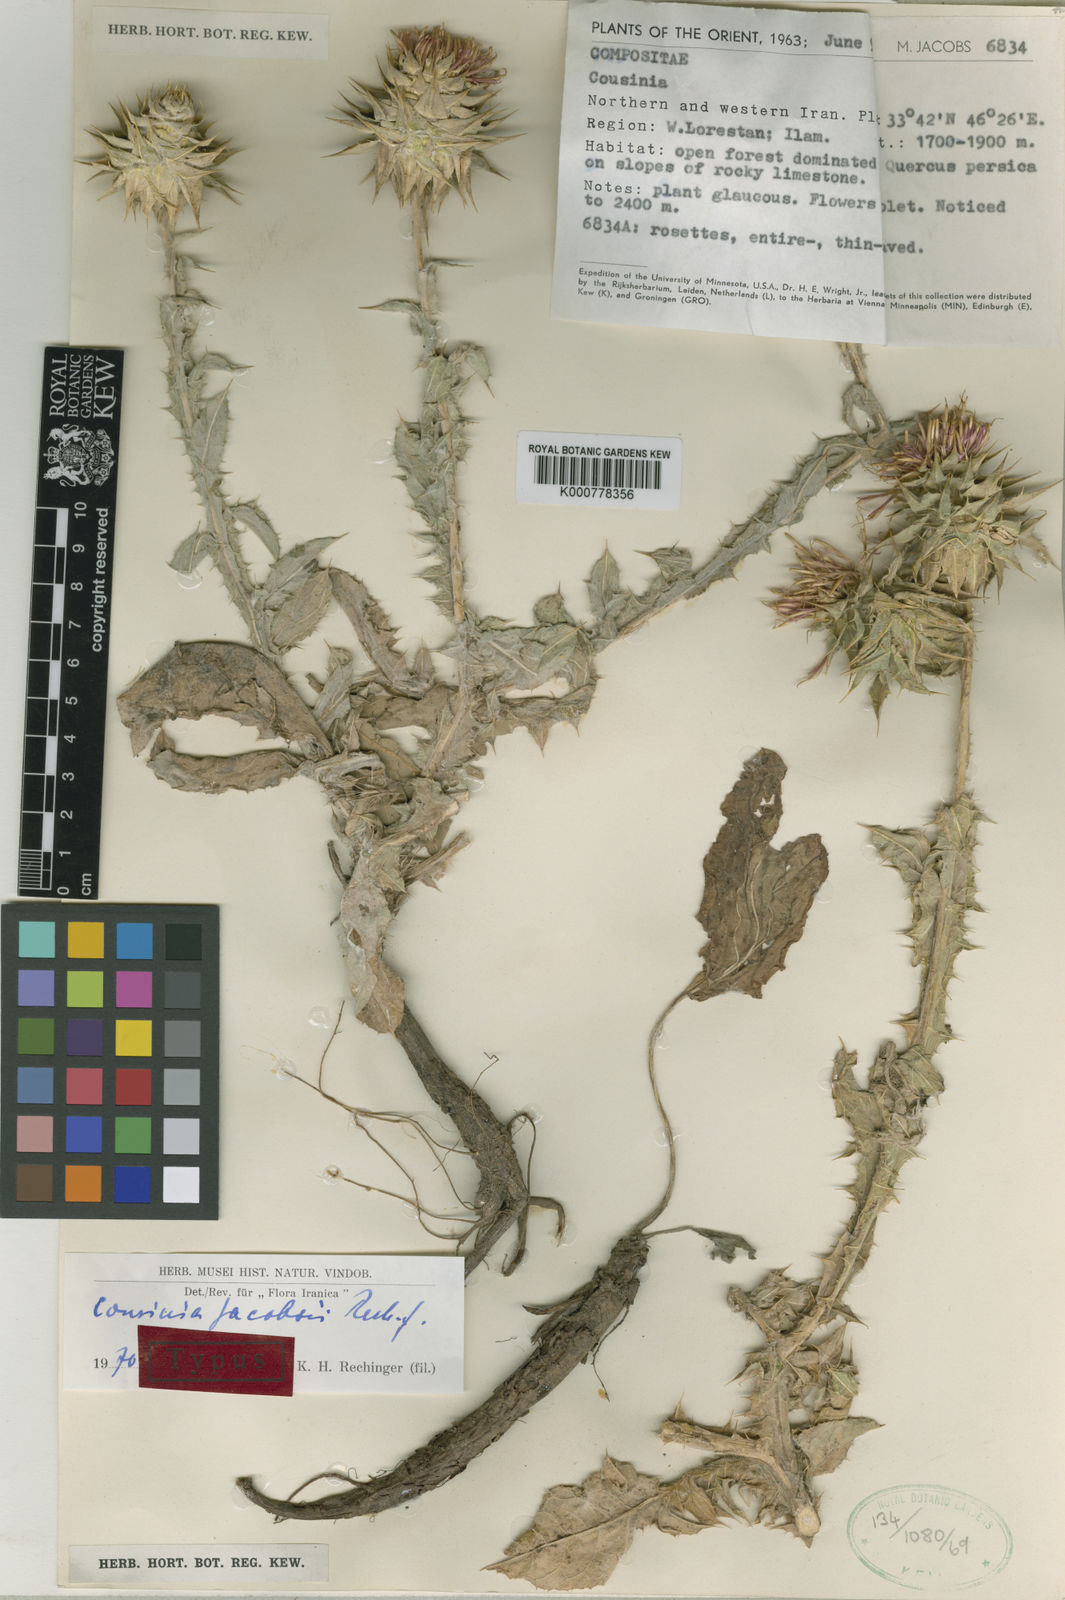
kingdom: Plantae
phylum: Tracheophyta
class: Magnoliopsida
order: Asterales
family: Asteraceae
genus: Cousinia
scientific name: Cousinia jacobsii
